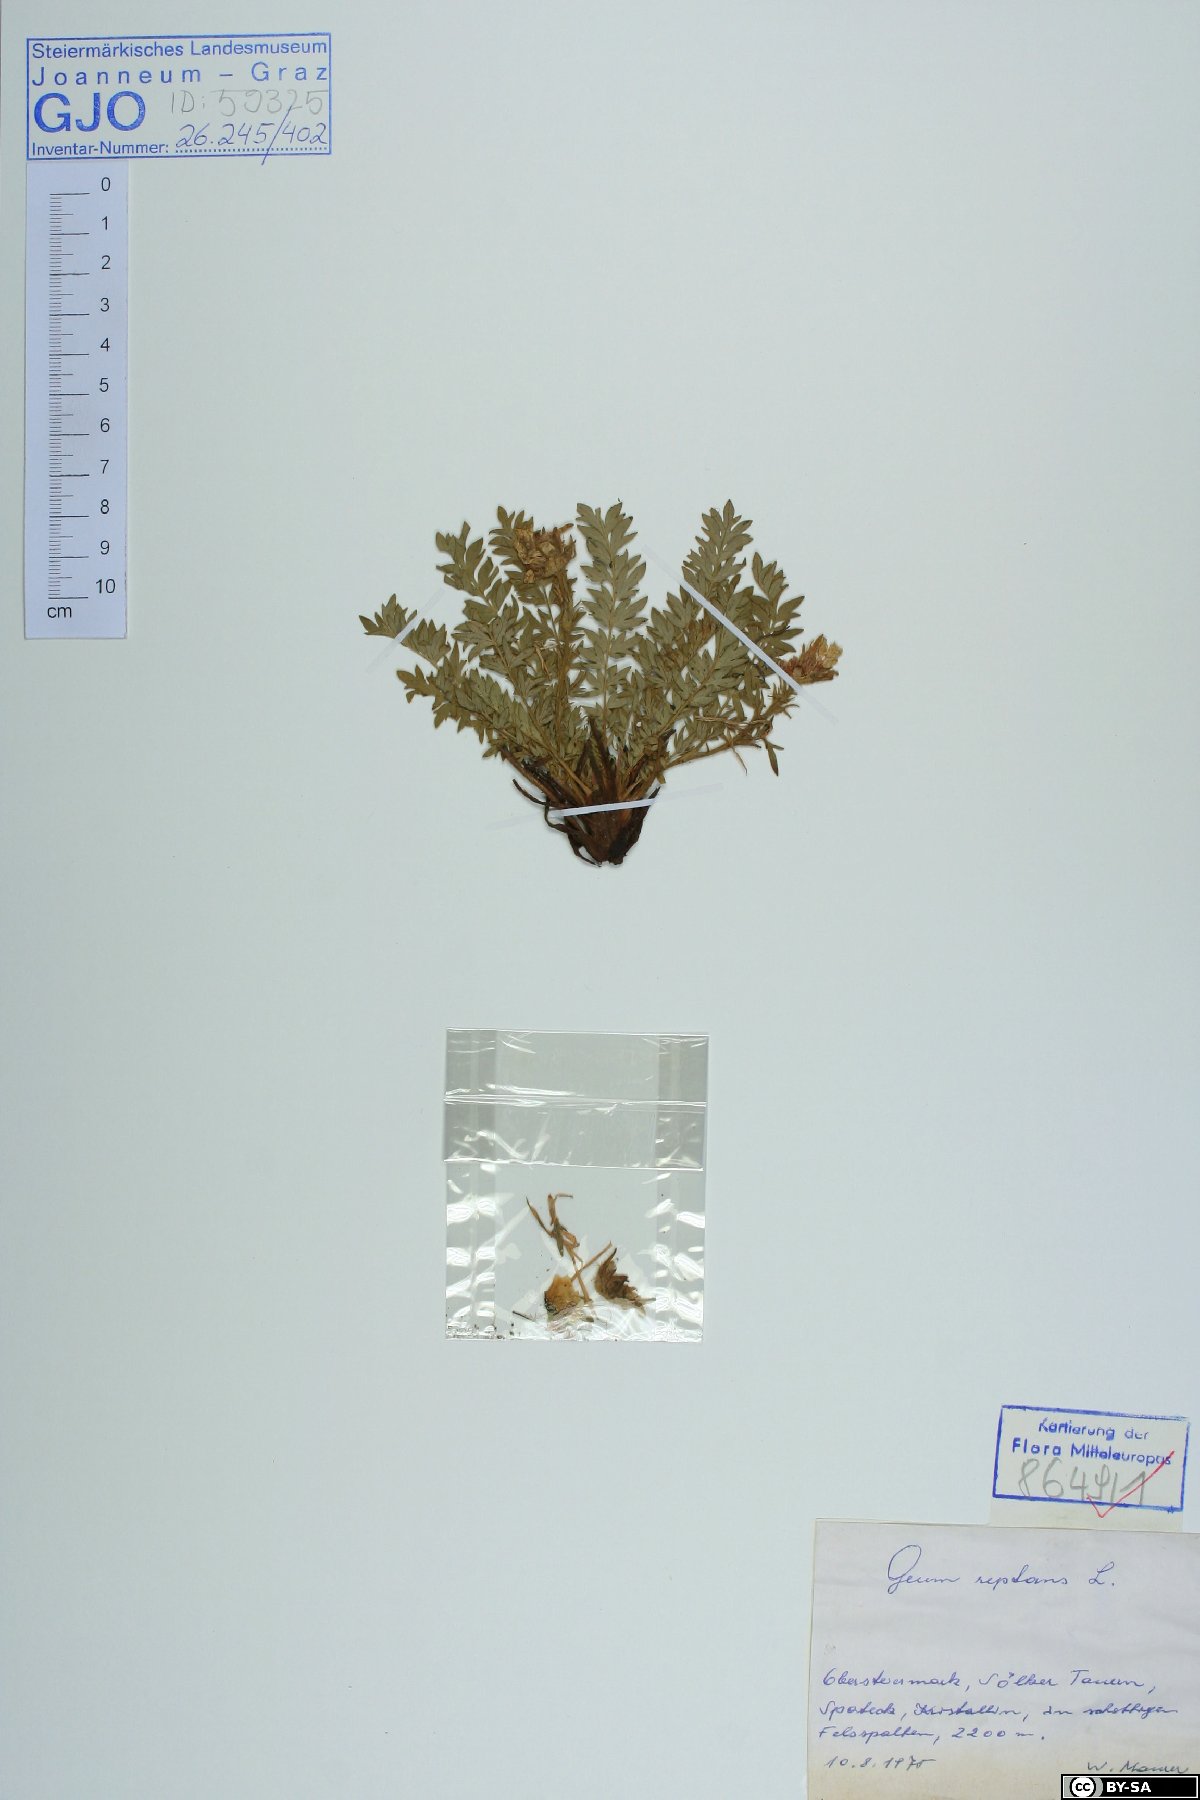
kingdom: Plantae
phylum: Tracheophyta
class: Magnoliopsida
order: Rosales
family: Rosaceae
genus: Geum
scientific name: Geum reptans
